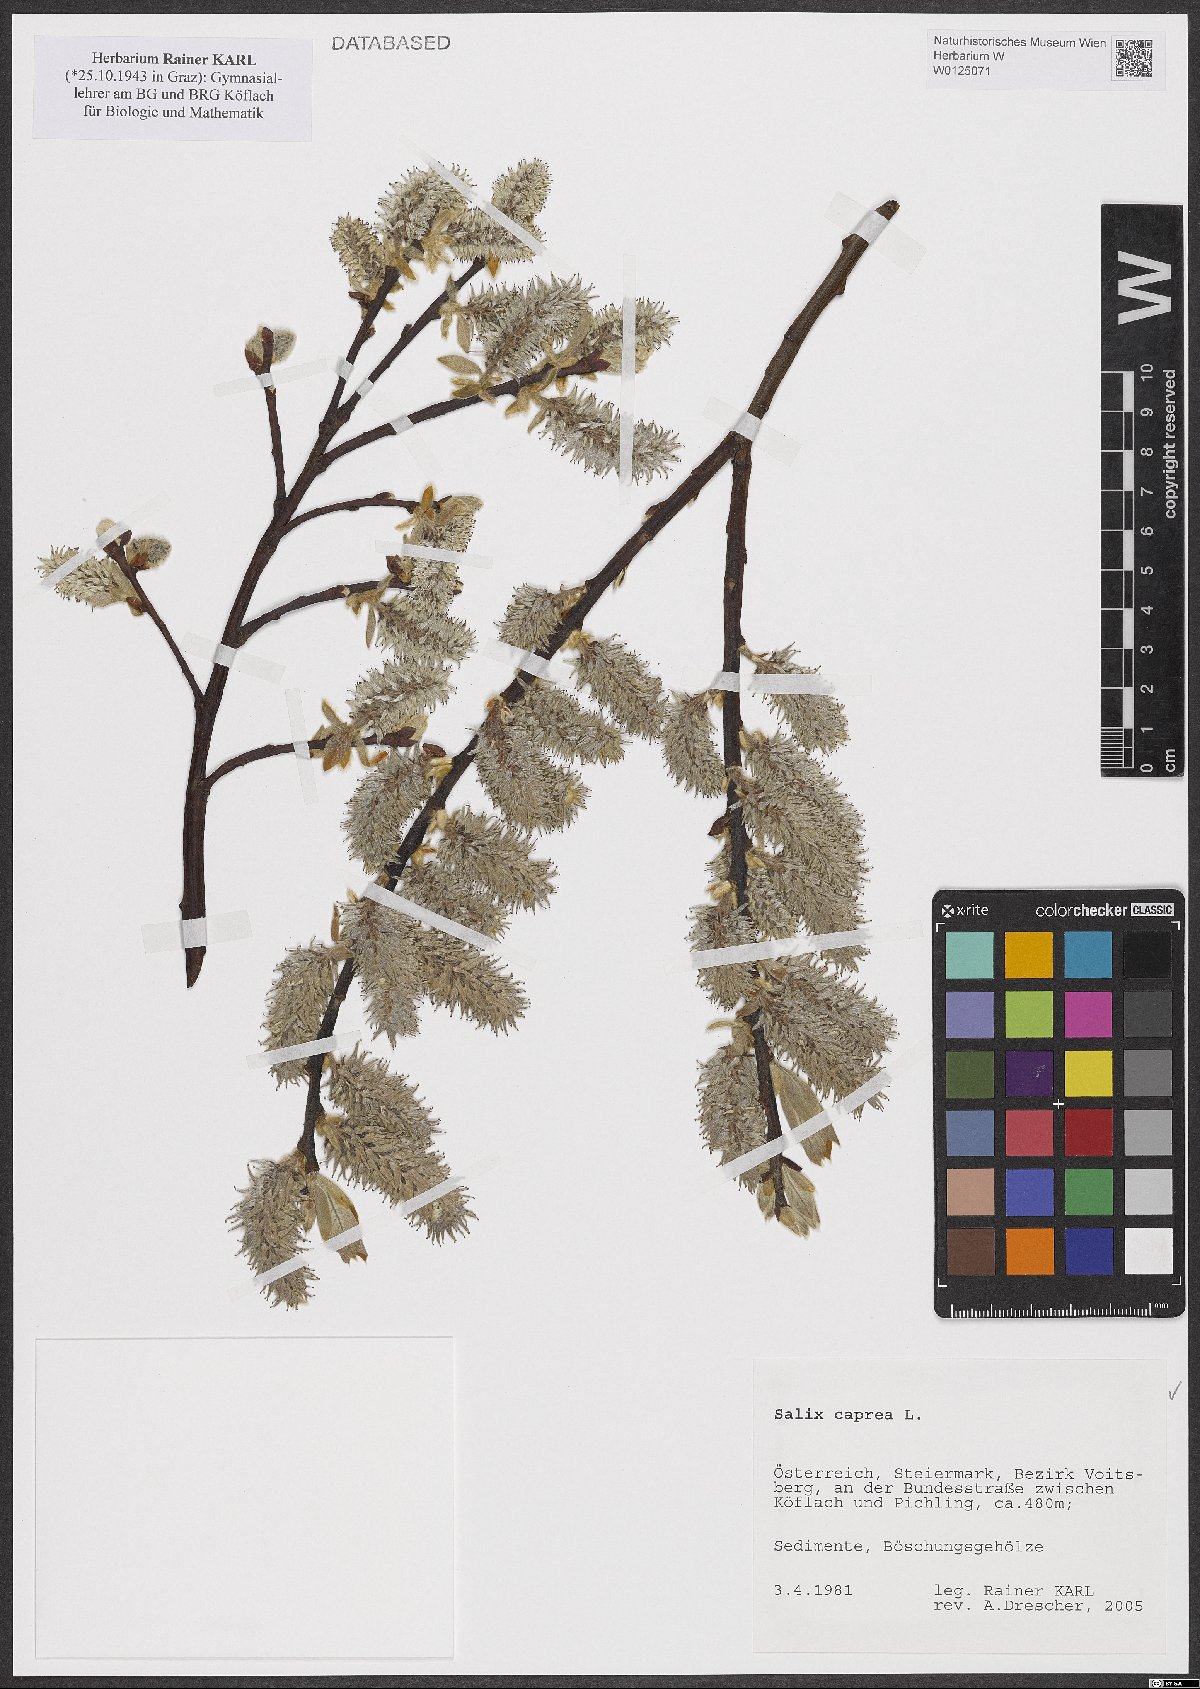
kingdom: Plantae
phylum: Tracheophyta
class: Magnoliopsida
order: Malpighiales
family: Salicaceae
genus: Salix
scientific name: Salix caprea
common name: Goat willow
